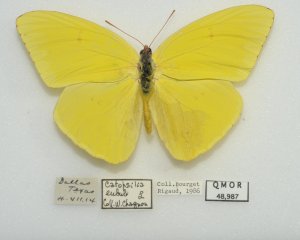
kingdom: Animalia
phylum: Arthropoda
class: Insecta
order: Lepidoptera
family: Pieridae
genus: Phoebis
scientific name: Phoebis sennae
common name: Cloudless Sulphur
